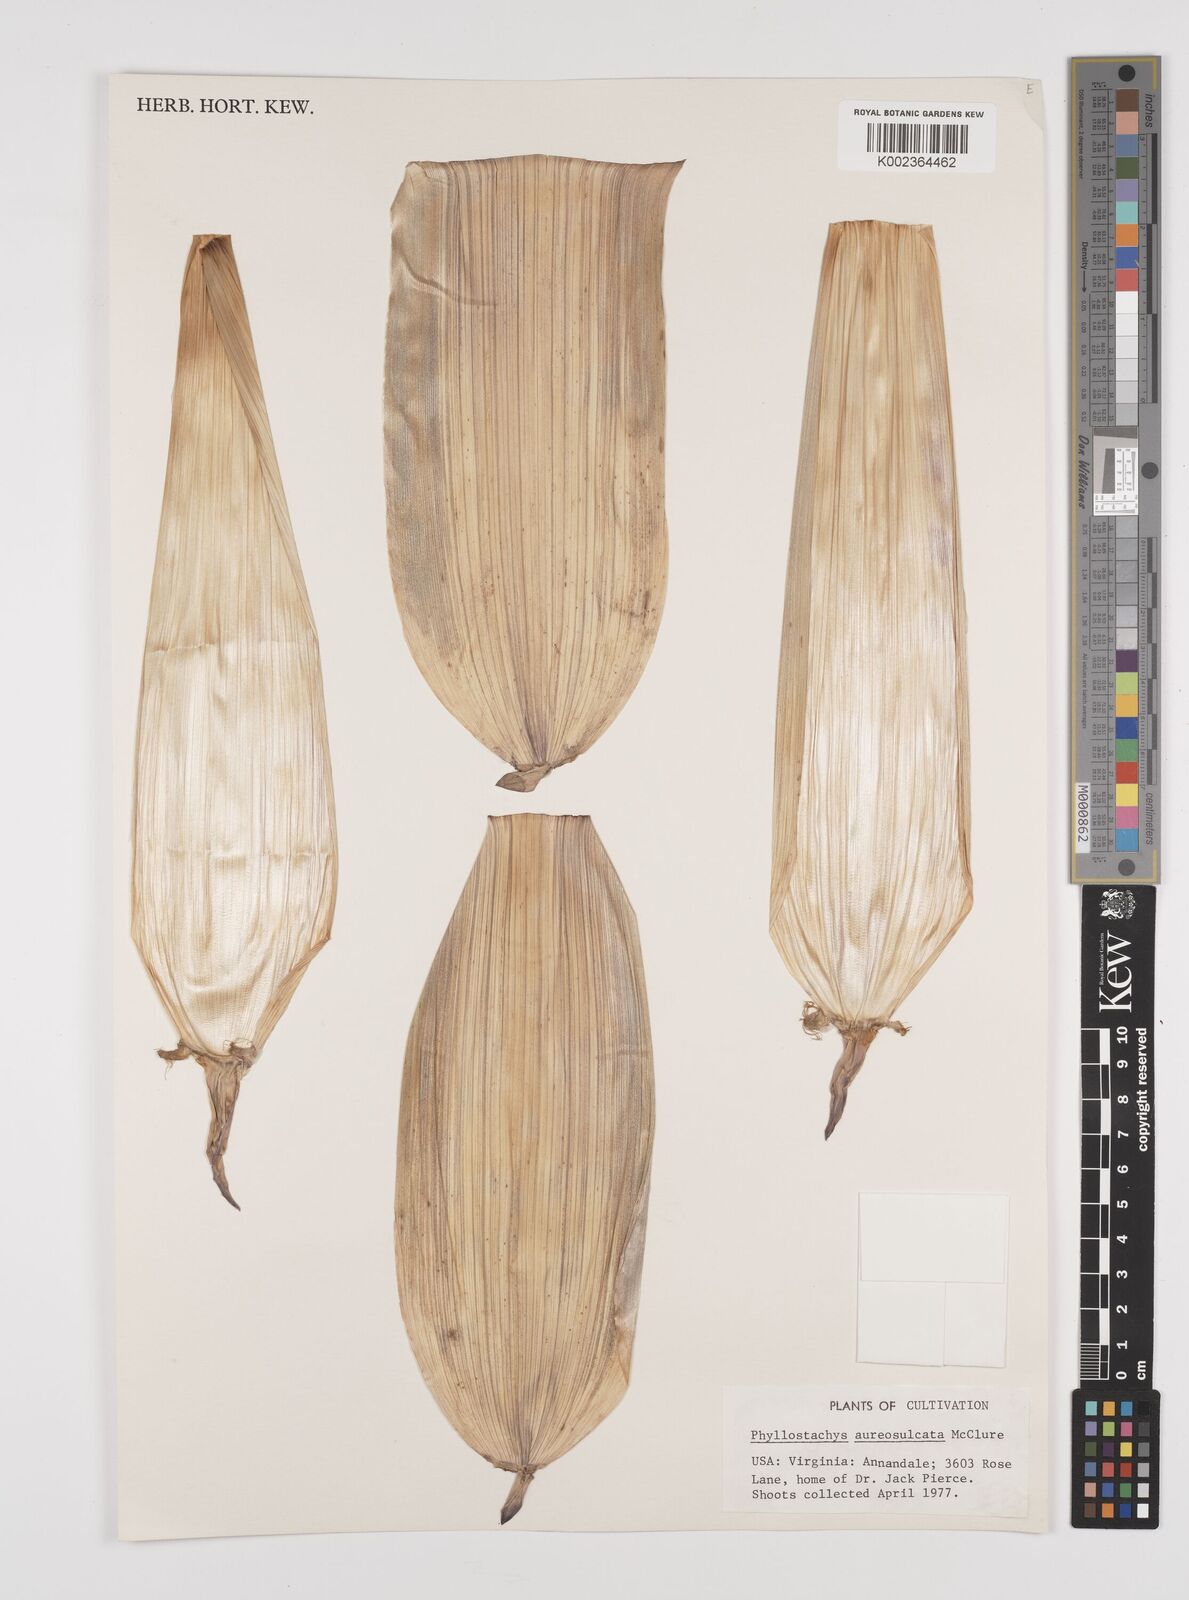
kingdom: Plantae
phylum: Tracheophyta
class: Liliopsida
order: Poales
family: Poaceae
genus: Phyllostachys
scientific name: Phyllostachys aureosulcata
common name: Yellow groove bamboo
